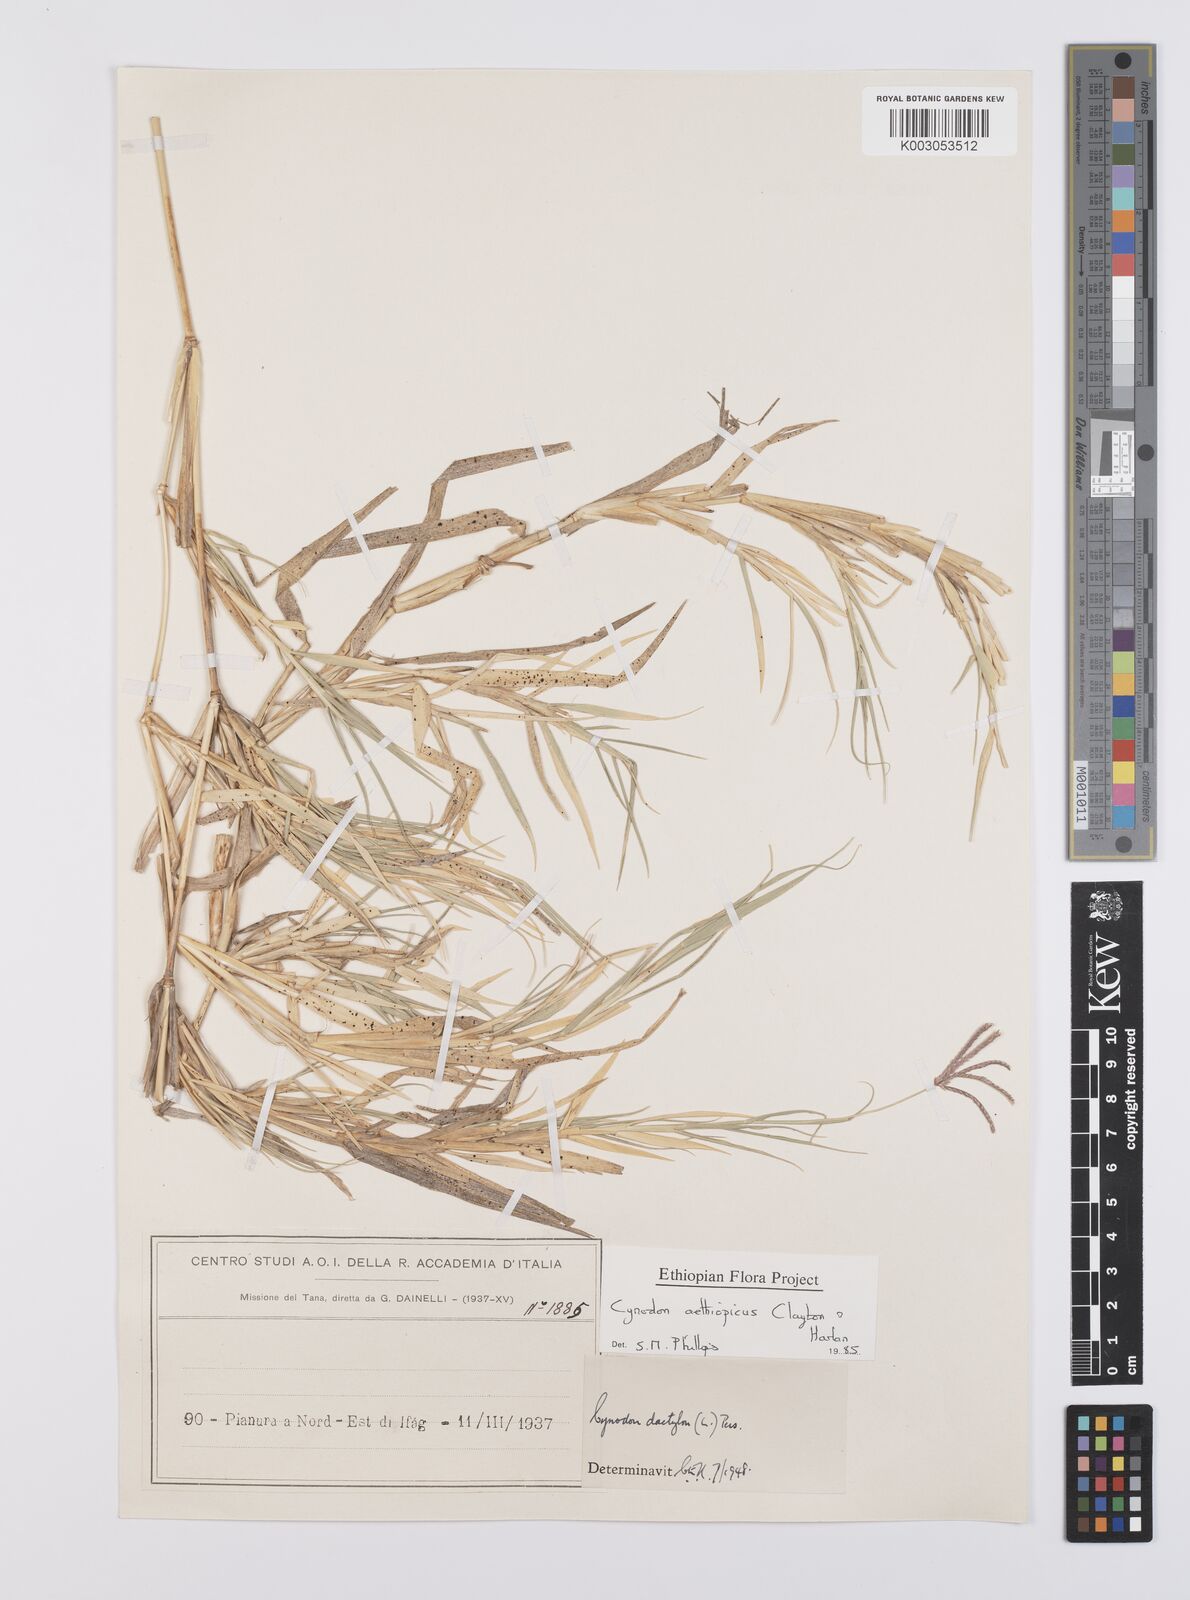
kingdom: Plantae
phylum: Tracheophyta
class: Liliopsida
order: Poales
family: Poaceae
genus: Cynodon
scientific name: Cynodon aethiopicus
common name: Ethiopian dogstooth grass
